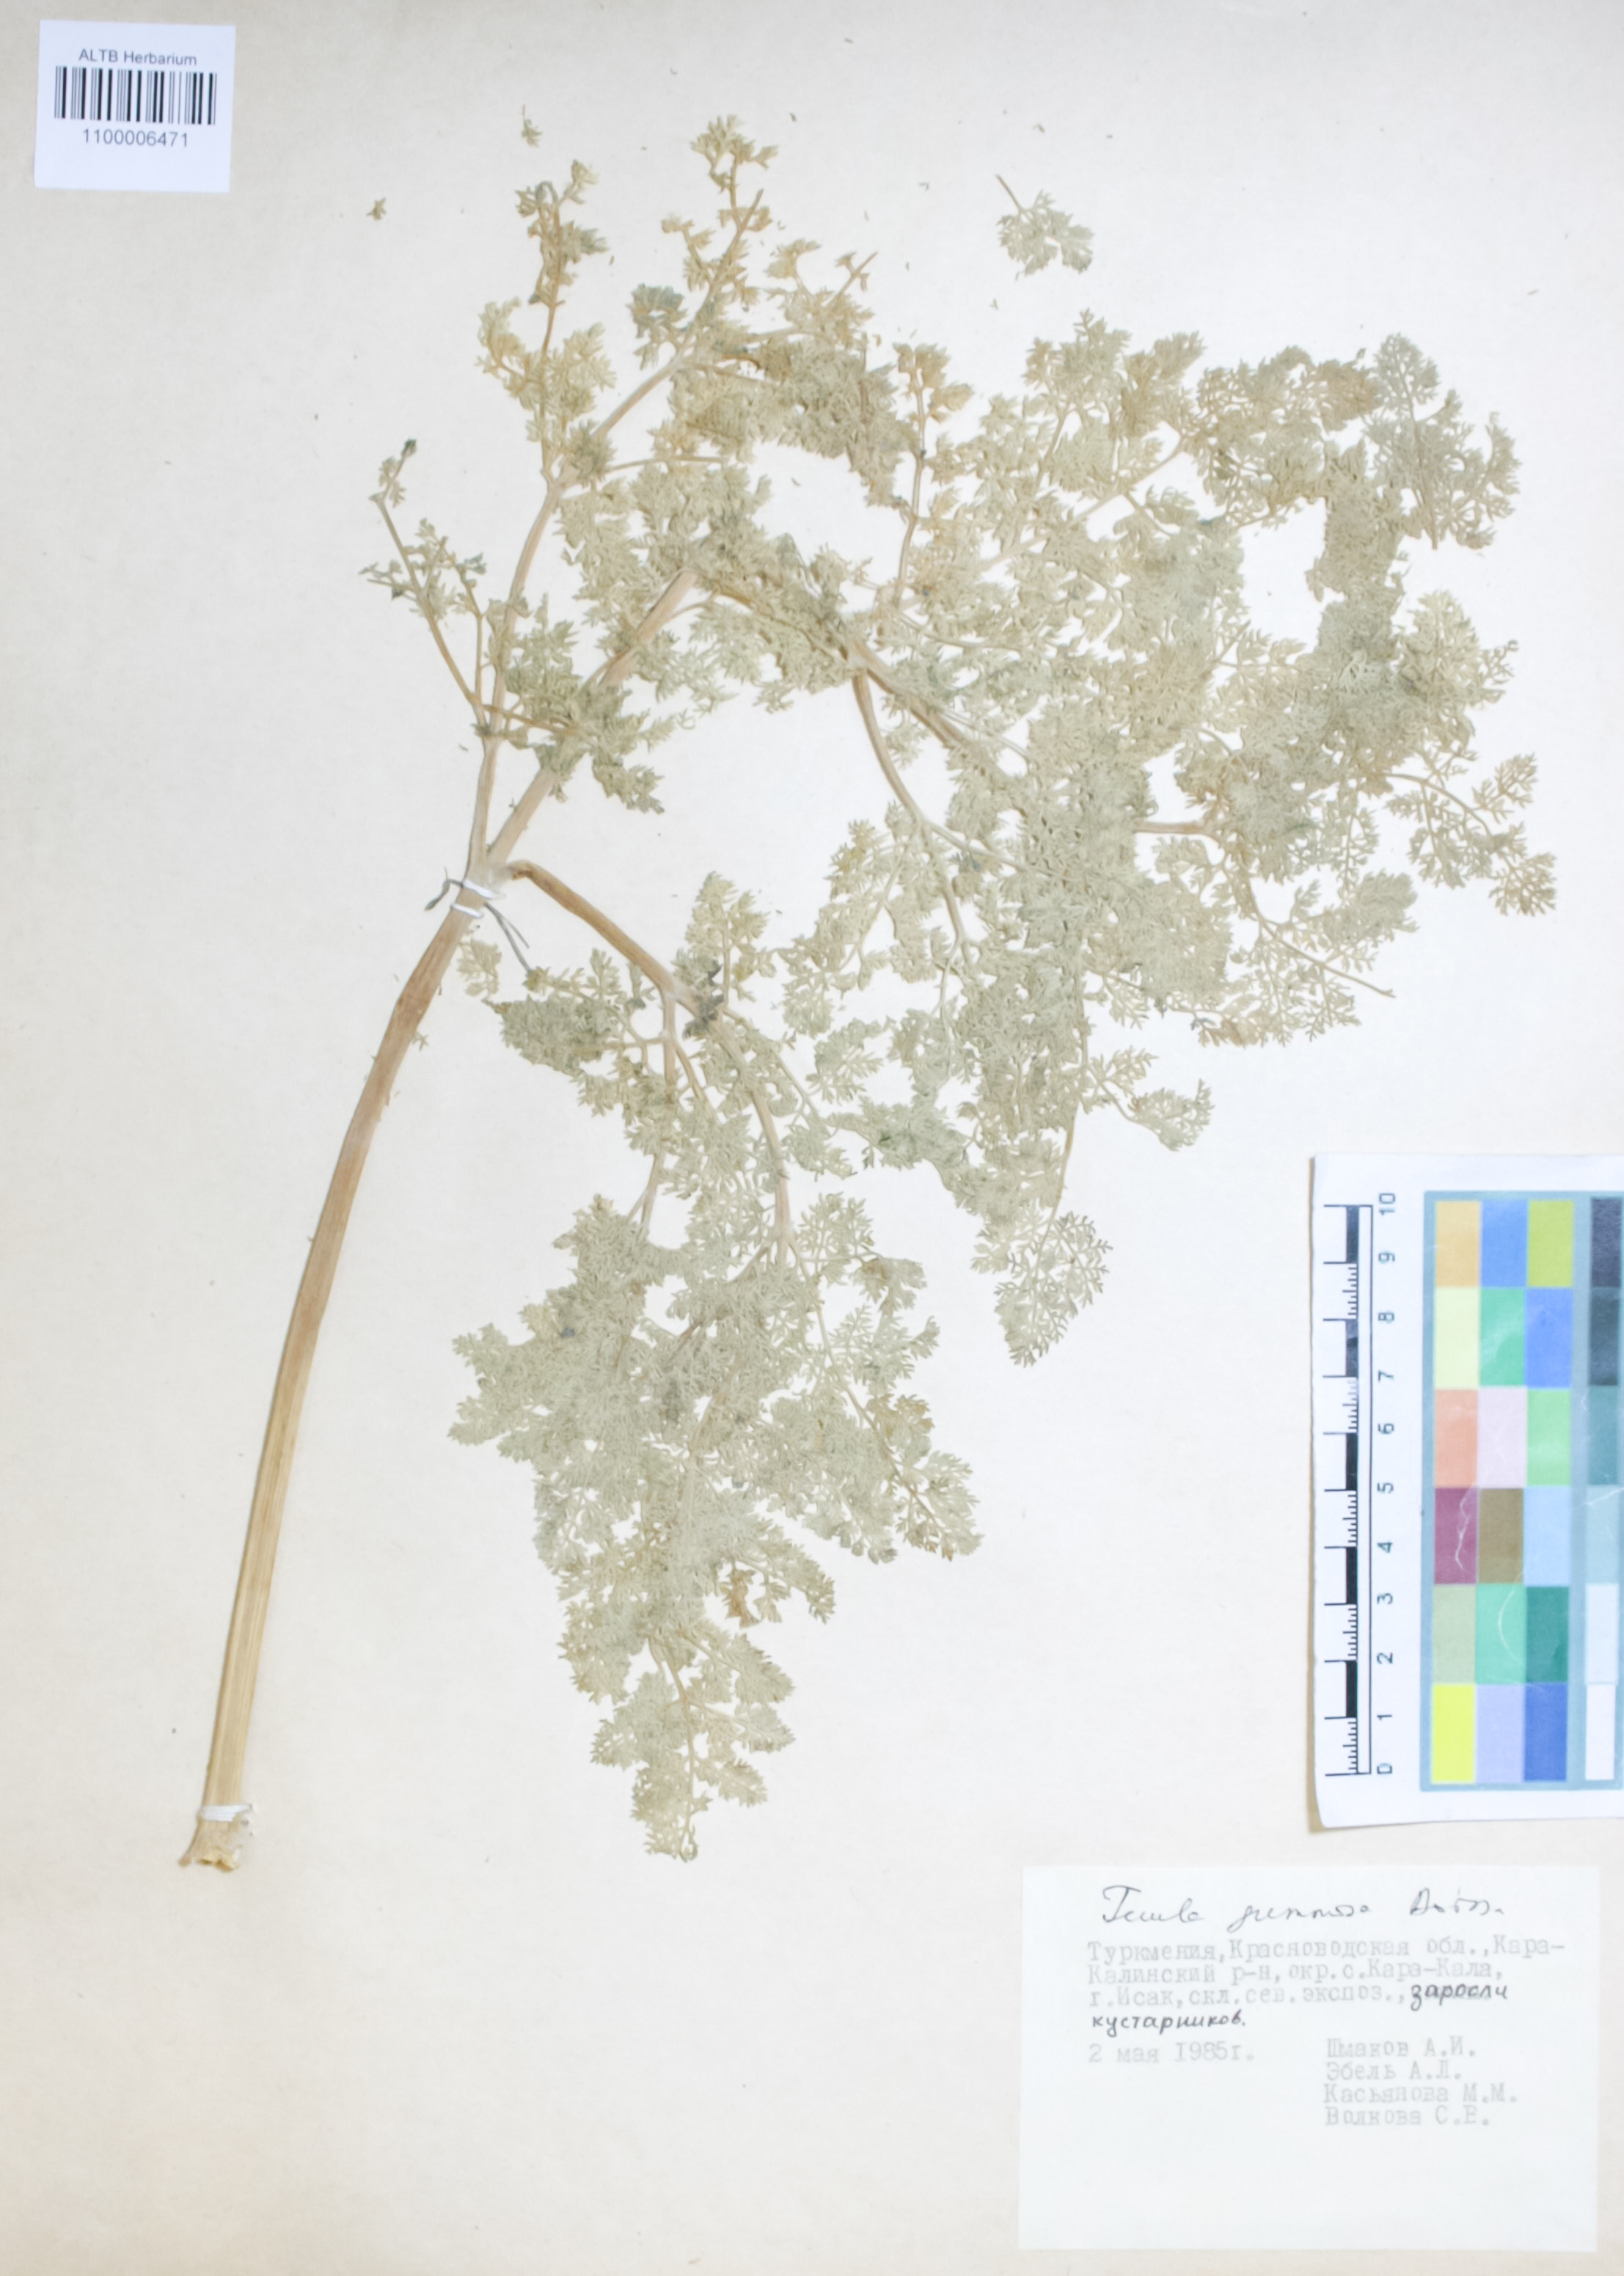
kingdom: Plantae
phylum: Tracheophyta
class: Magnoliopsida
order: Apiales
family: Apiaceae
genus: Ferula
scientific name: Ferula gummosa
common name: Galbanum
